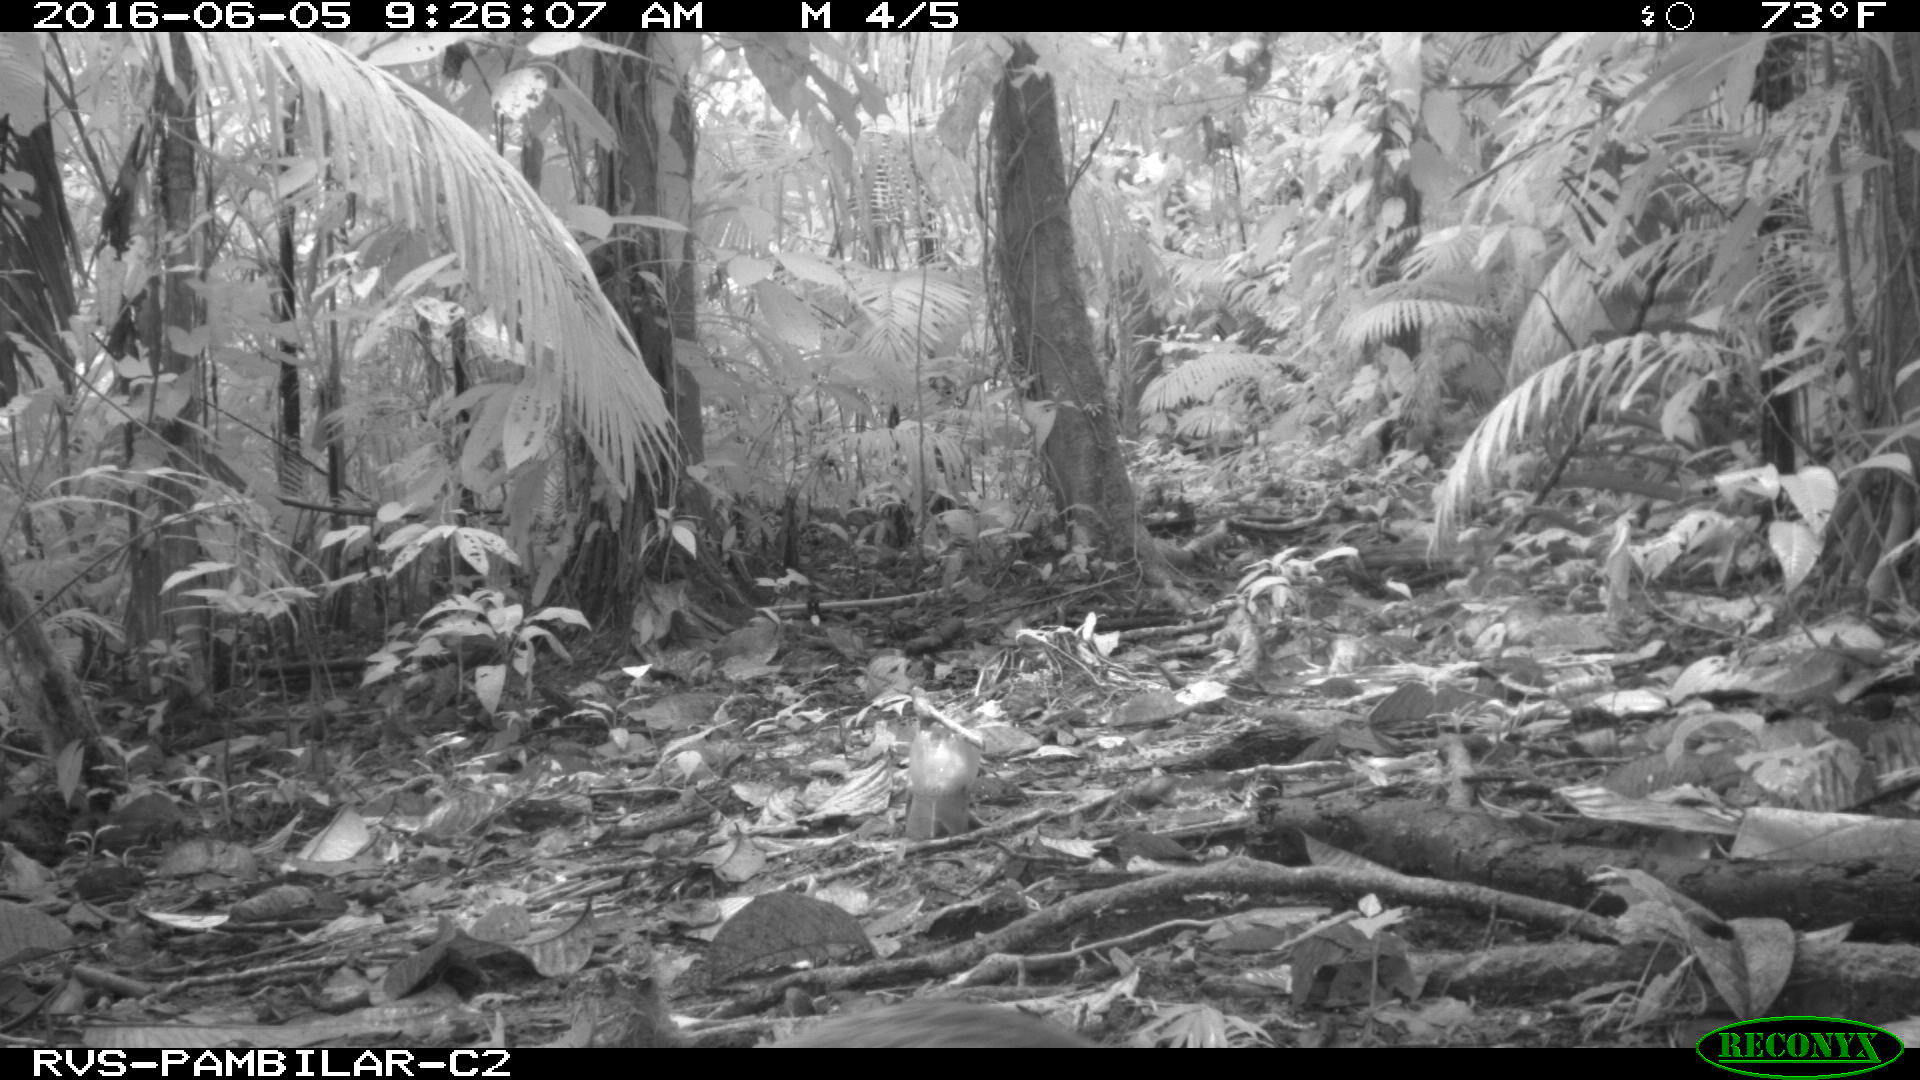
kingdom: Animalia
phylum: Chordata
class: Mammalia
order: Rodentia
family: Dasyproctidae
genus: Dasyprocta
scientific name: Dasyprocta punctata
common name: Central american agouti
